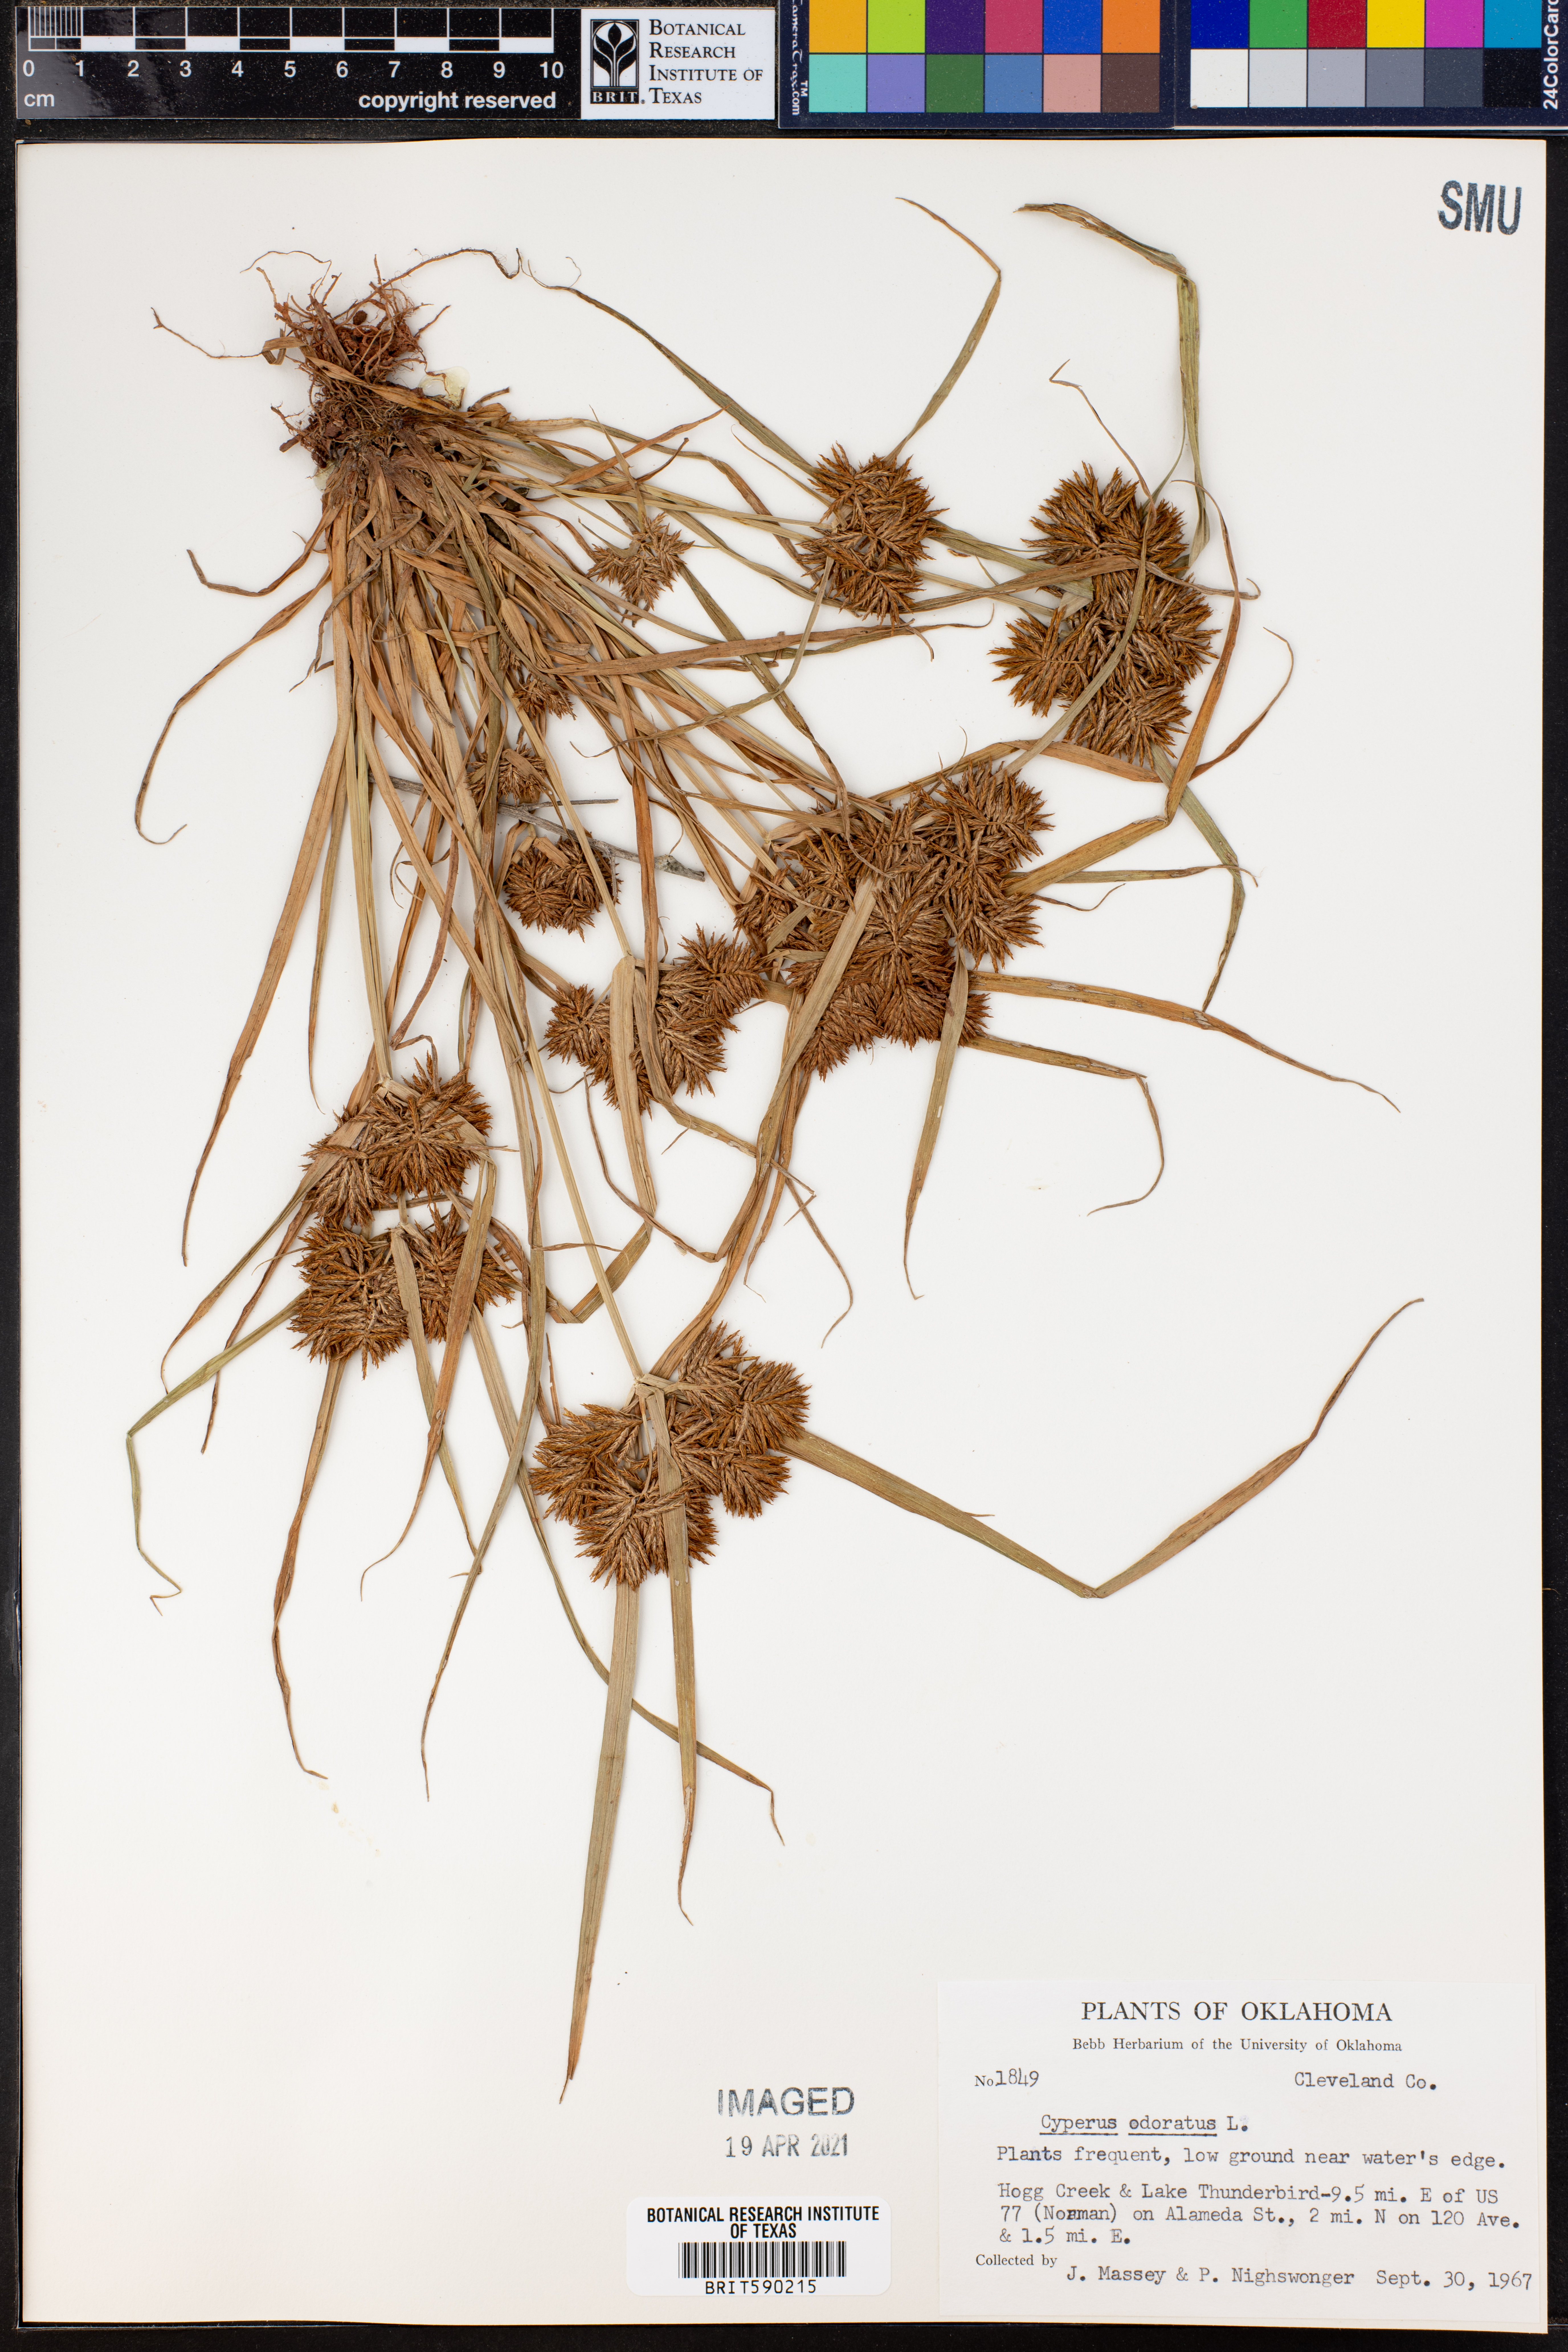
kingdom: Plantae
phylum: Tracheophyta
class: Liliopsida
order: Poales
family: Cyperaceae
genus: Cyperus
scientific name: Cyperus odoratus
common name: Fragrant flatsedge
